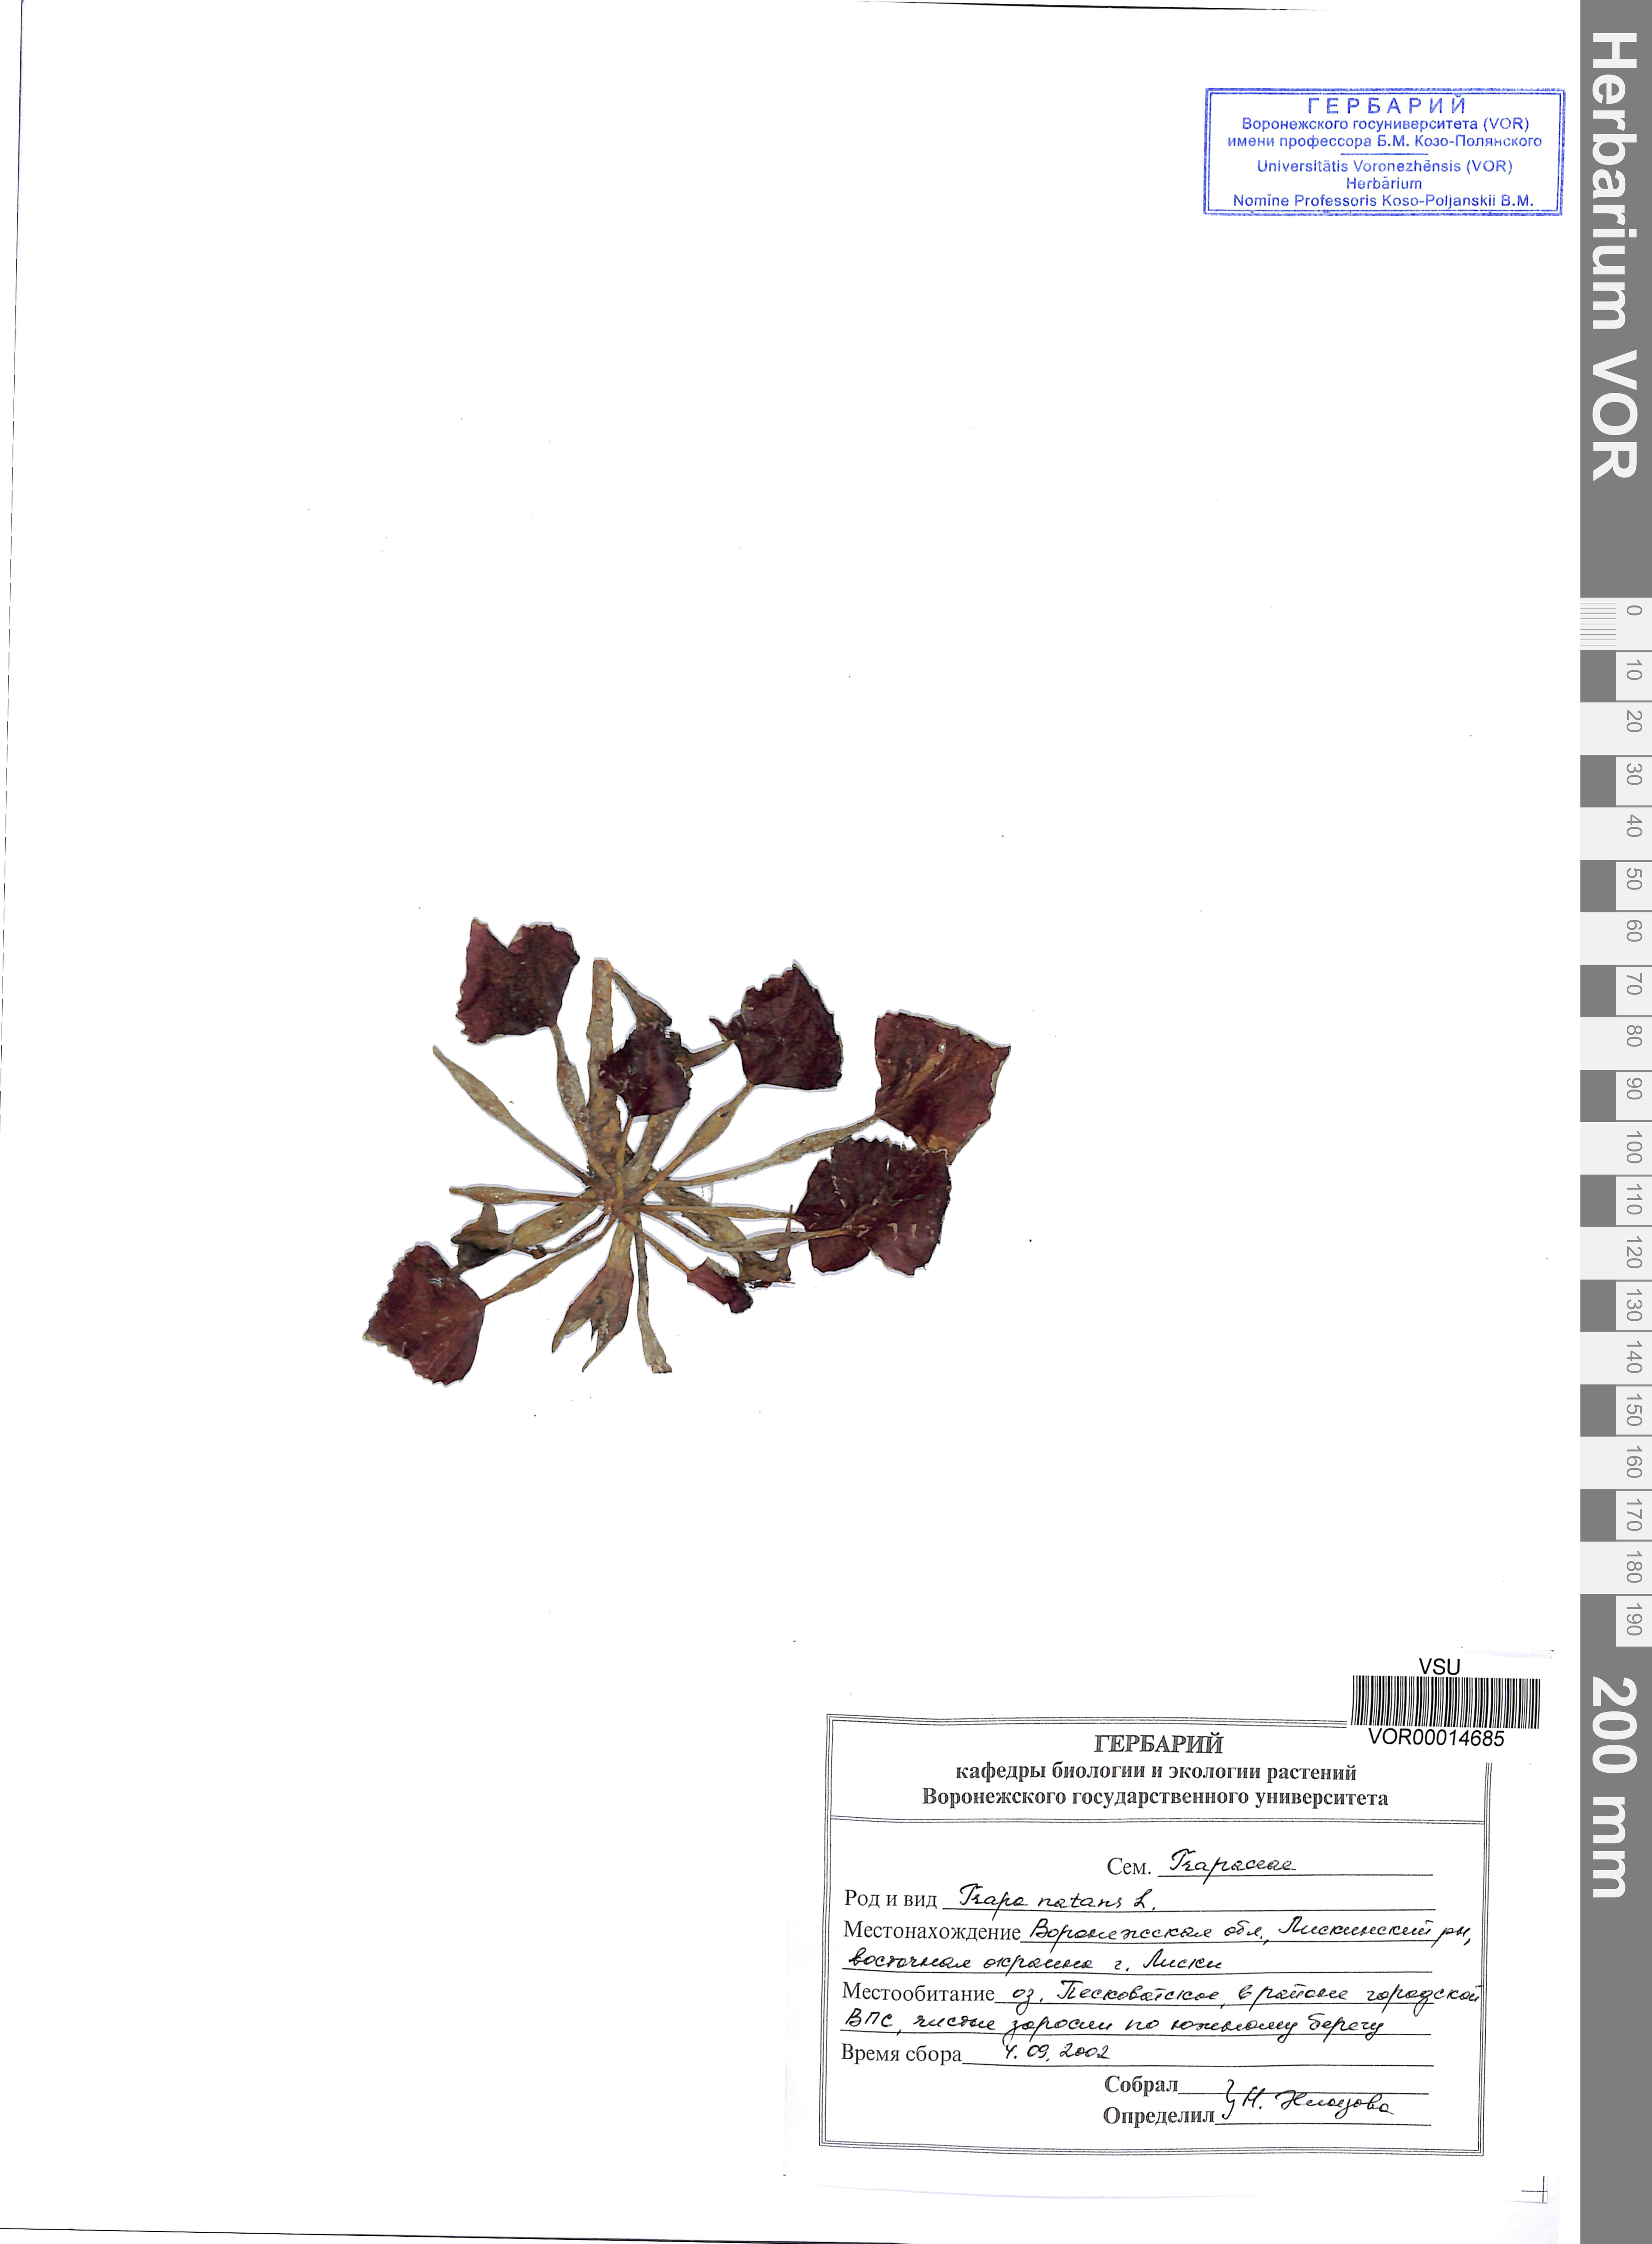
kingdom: Plantae
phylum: Tracheophyta
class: Magnoliopsida
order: Myrtales
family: Lythraceae
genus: Trapa
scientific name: Trapa natans
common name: Water chestnut
